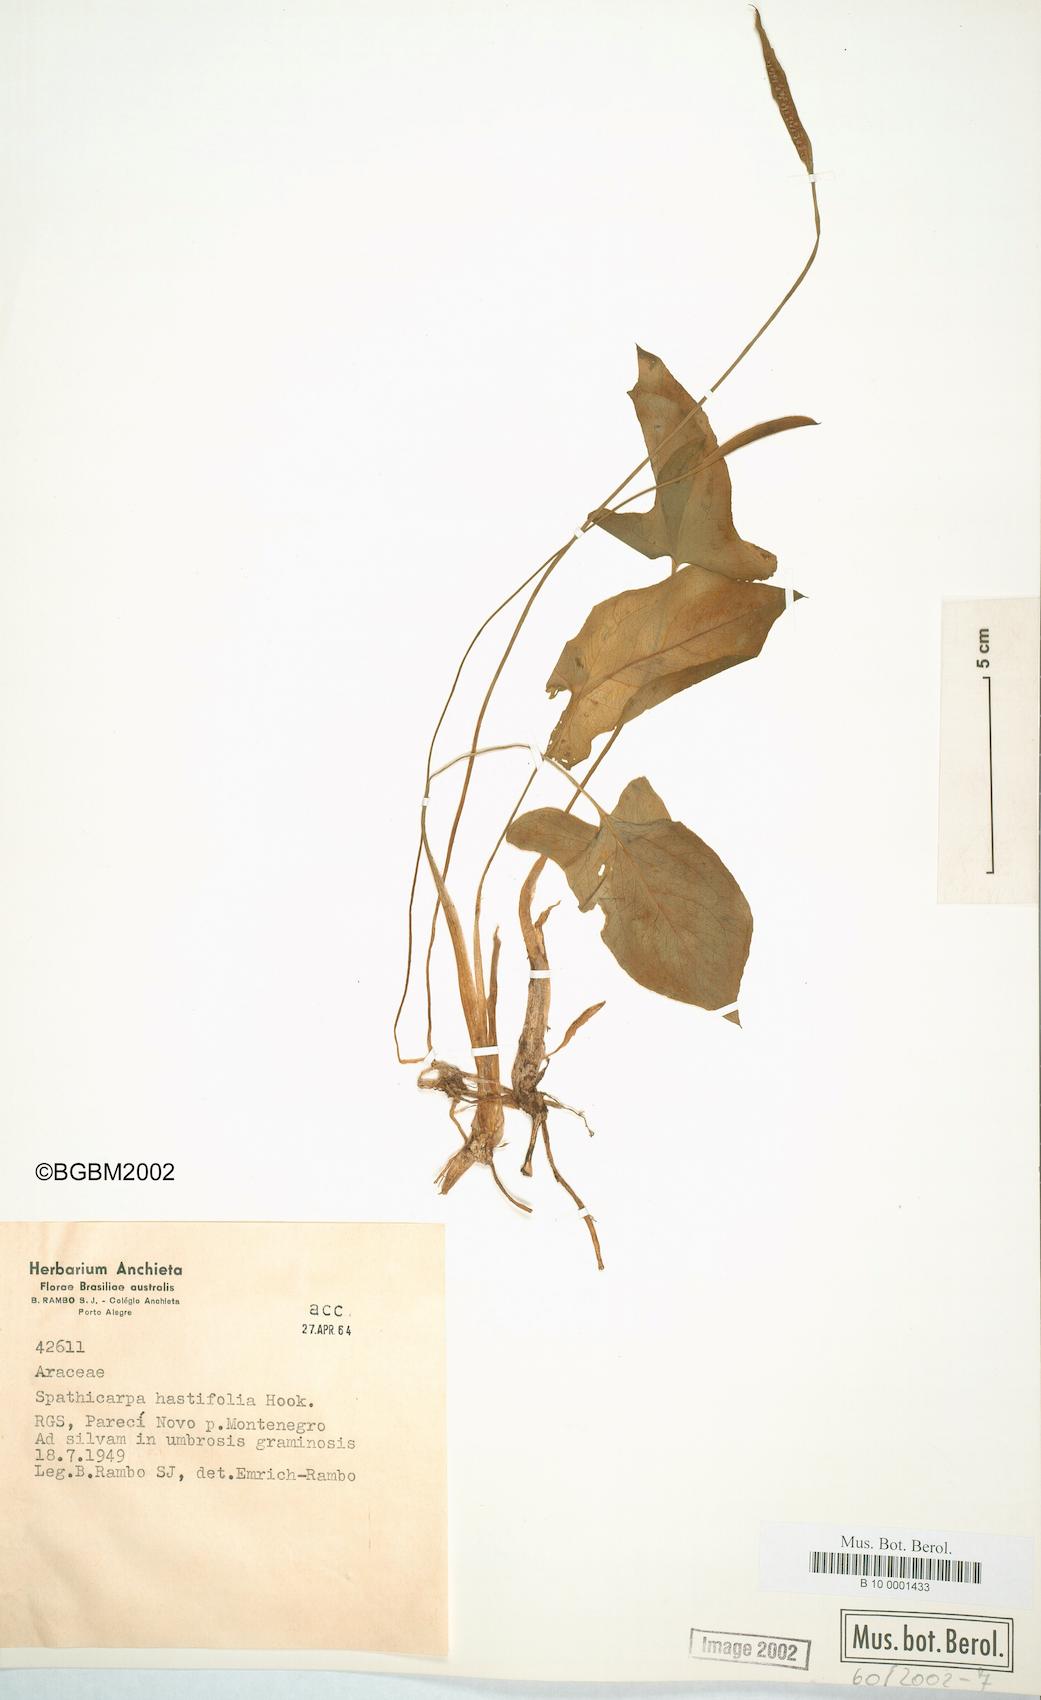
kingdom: Plantae
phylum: Tracheophyta
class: Liliopsida
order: Alismatales
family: Araceae
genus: Spathicarpa
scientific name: Spathicarpa hastifolia
